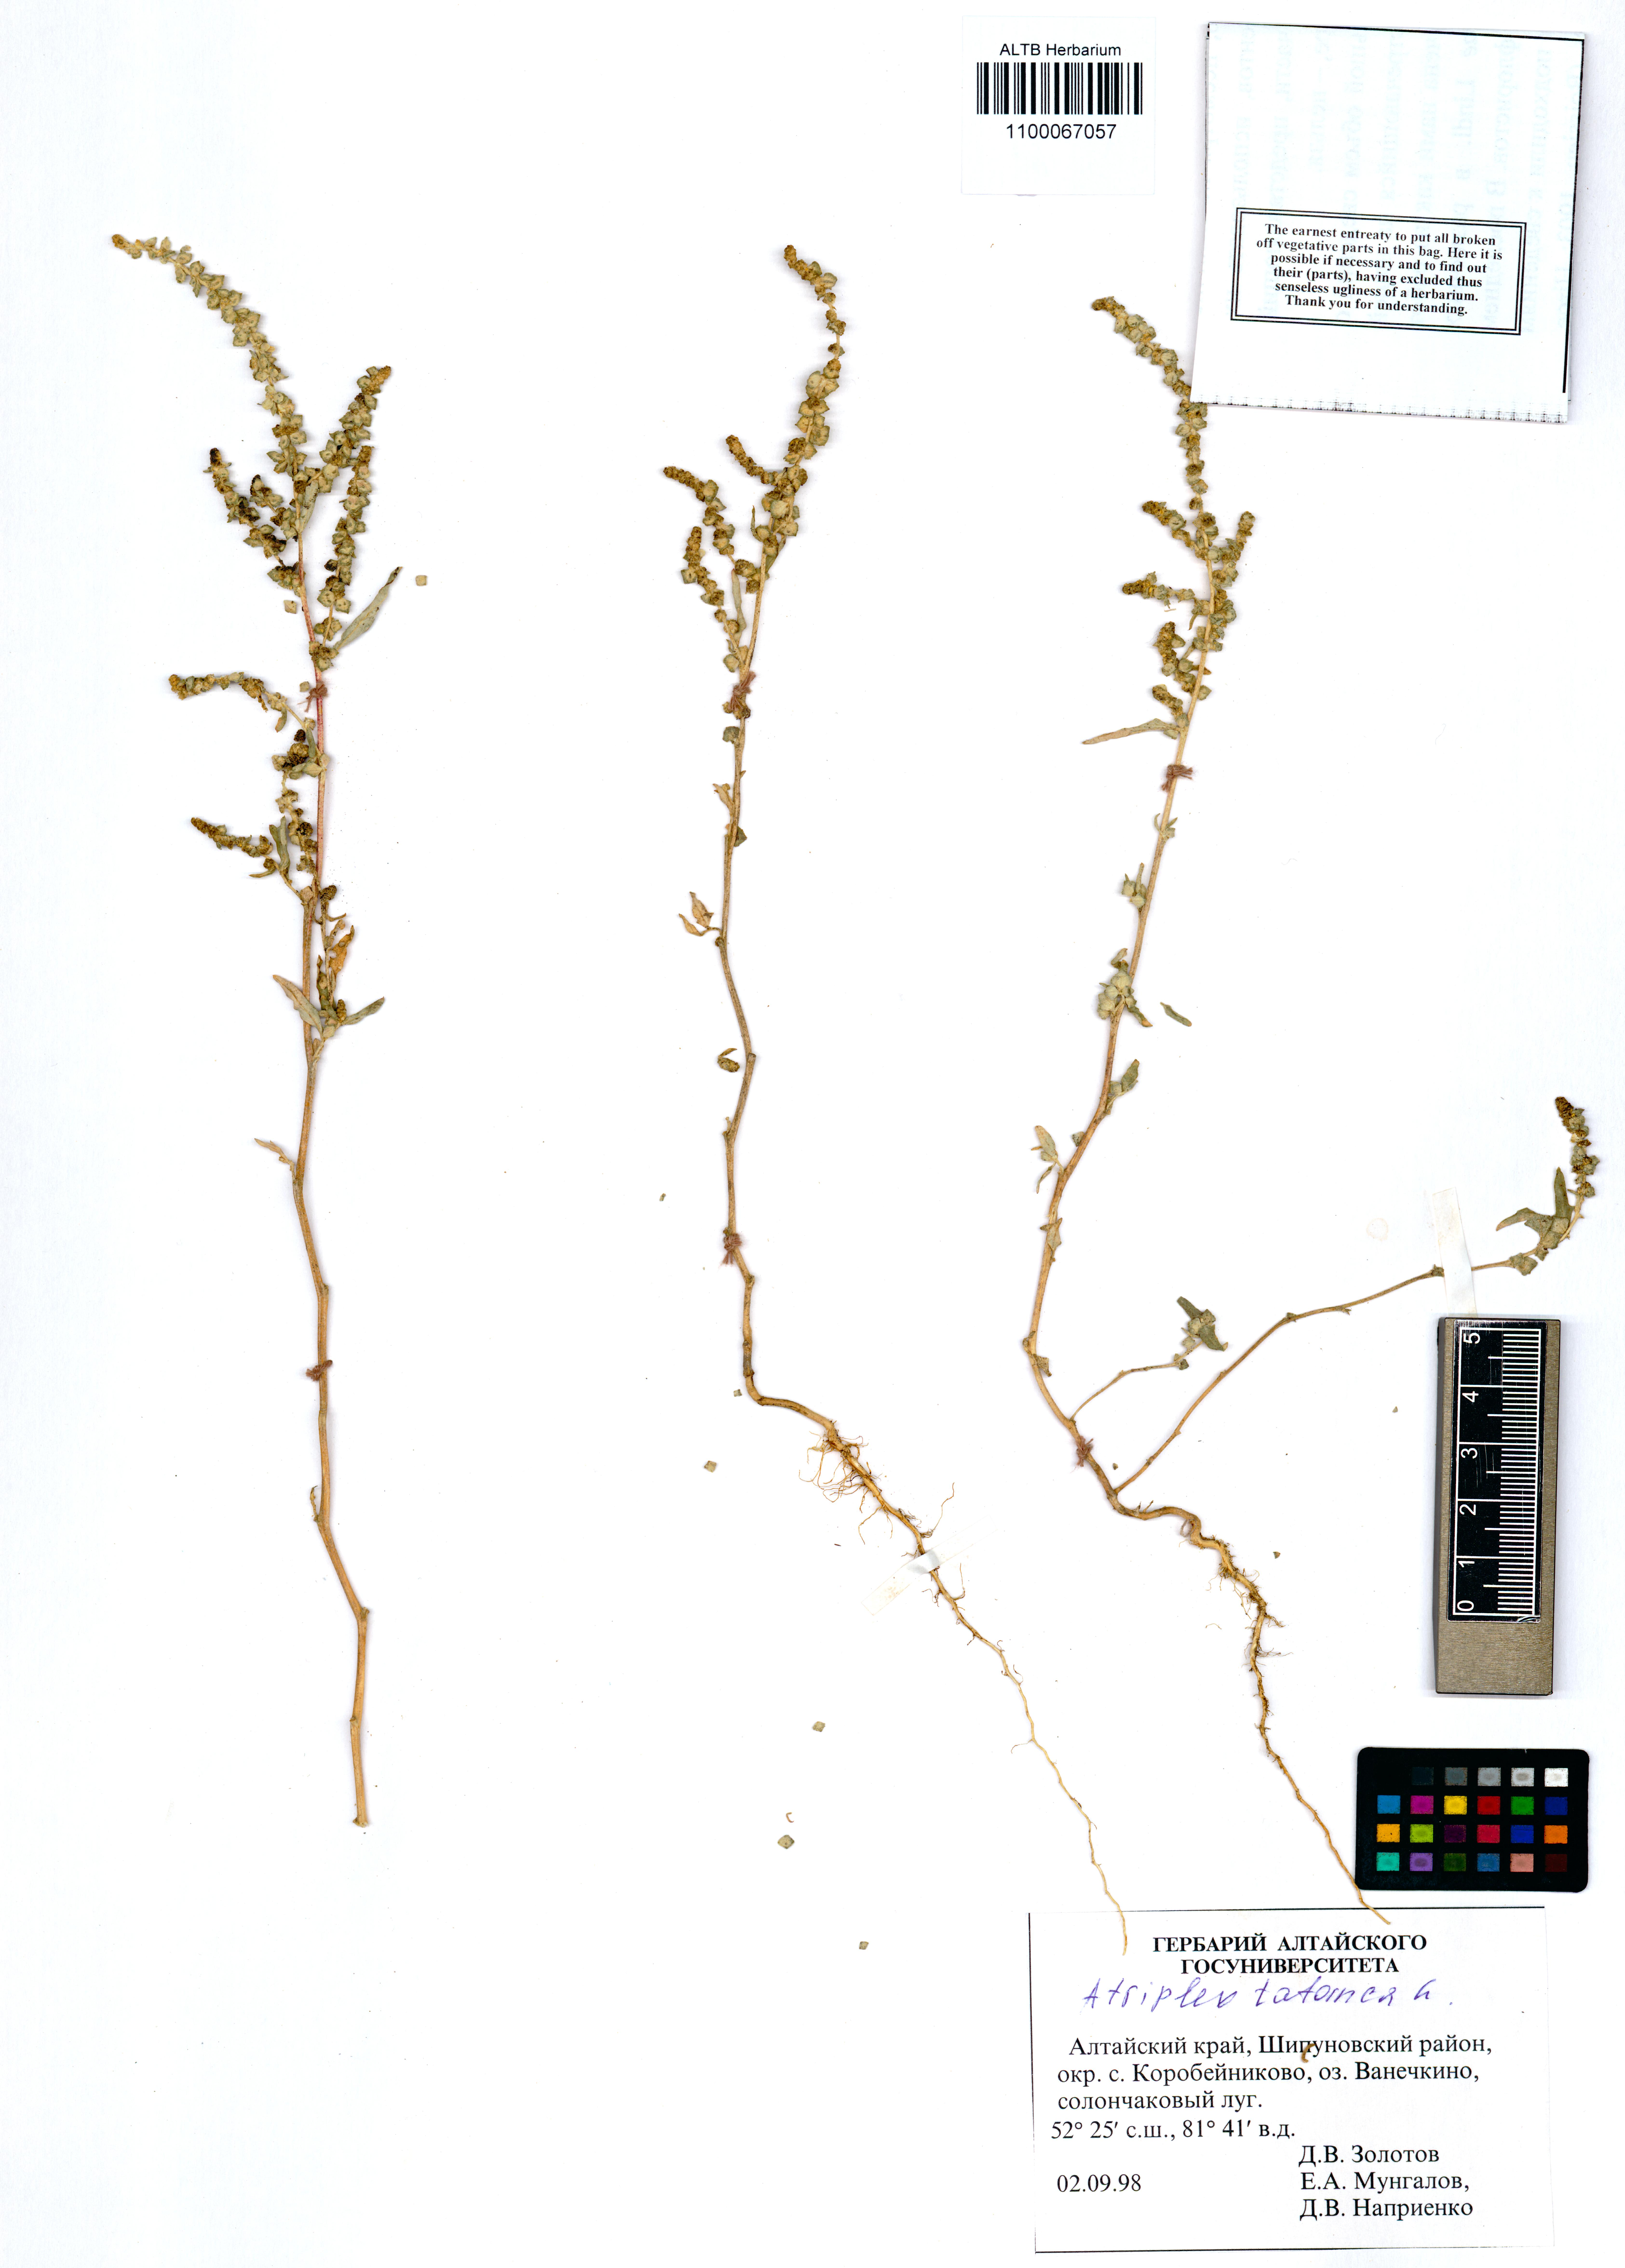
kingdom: Plantae
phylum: Tracheophyta
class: Magnoliopsida
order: Caryophyllales
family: Amaranthaceae
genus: Atriplex
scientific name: Atriplex tatarica
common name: Tatarian orache
